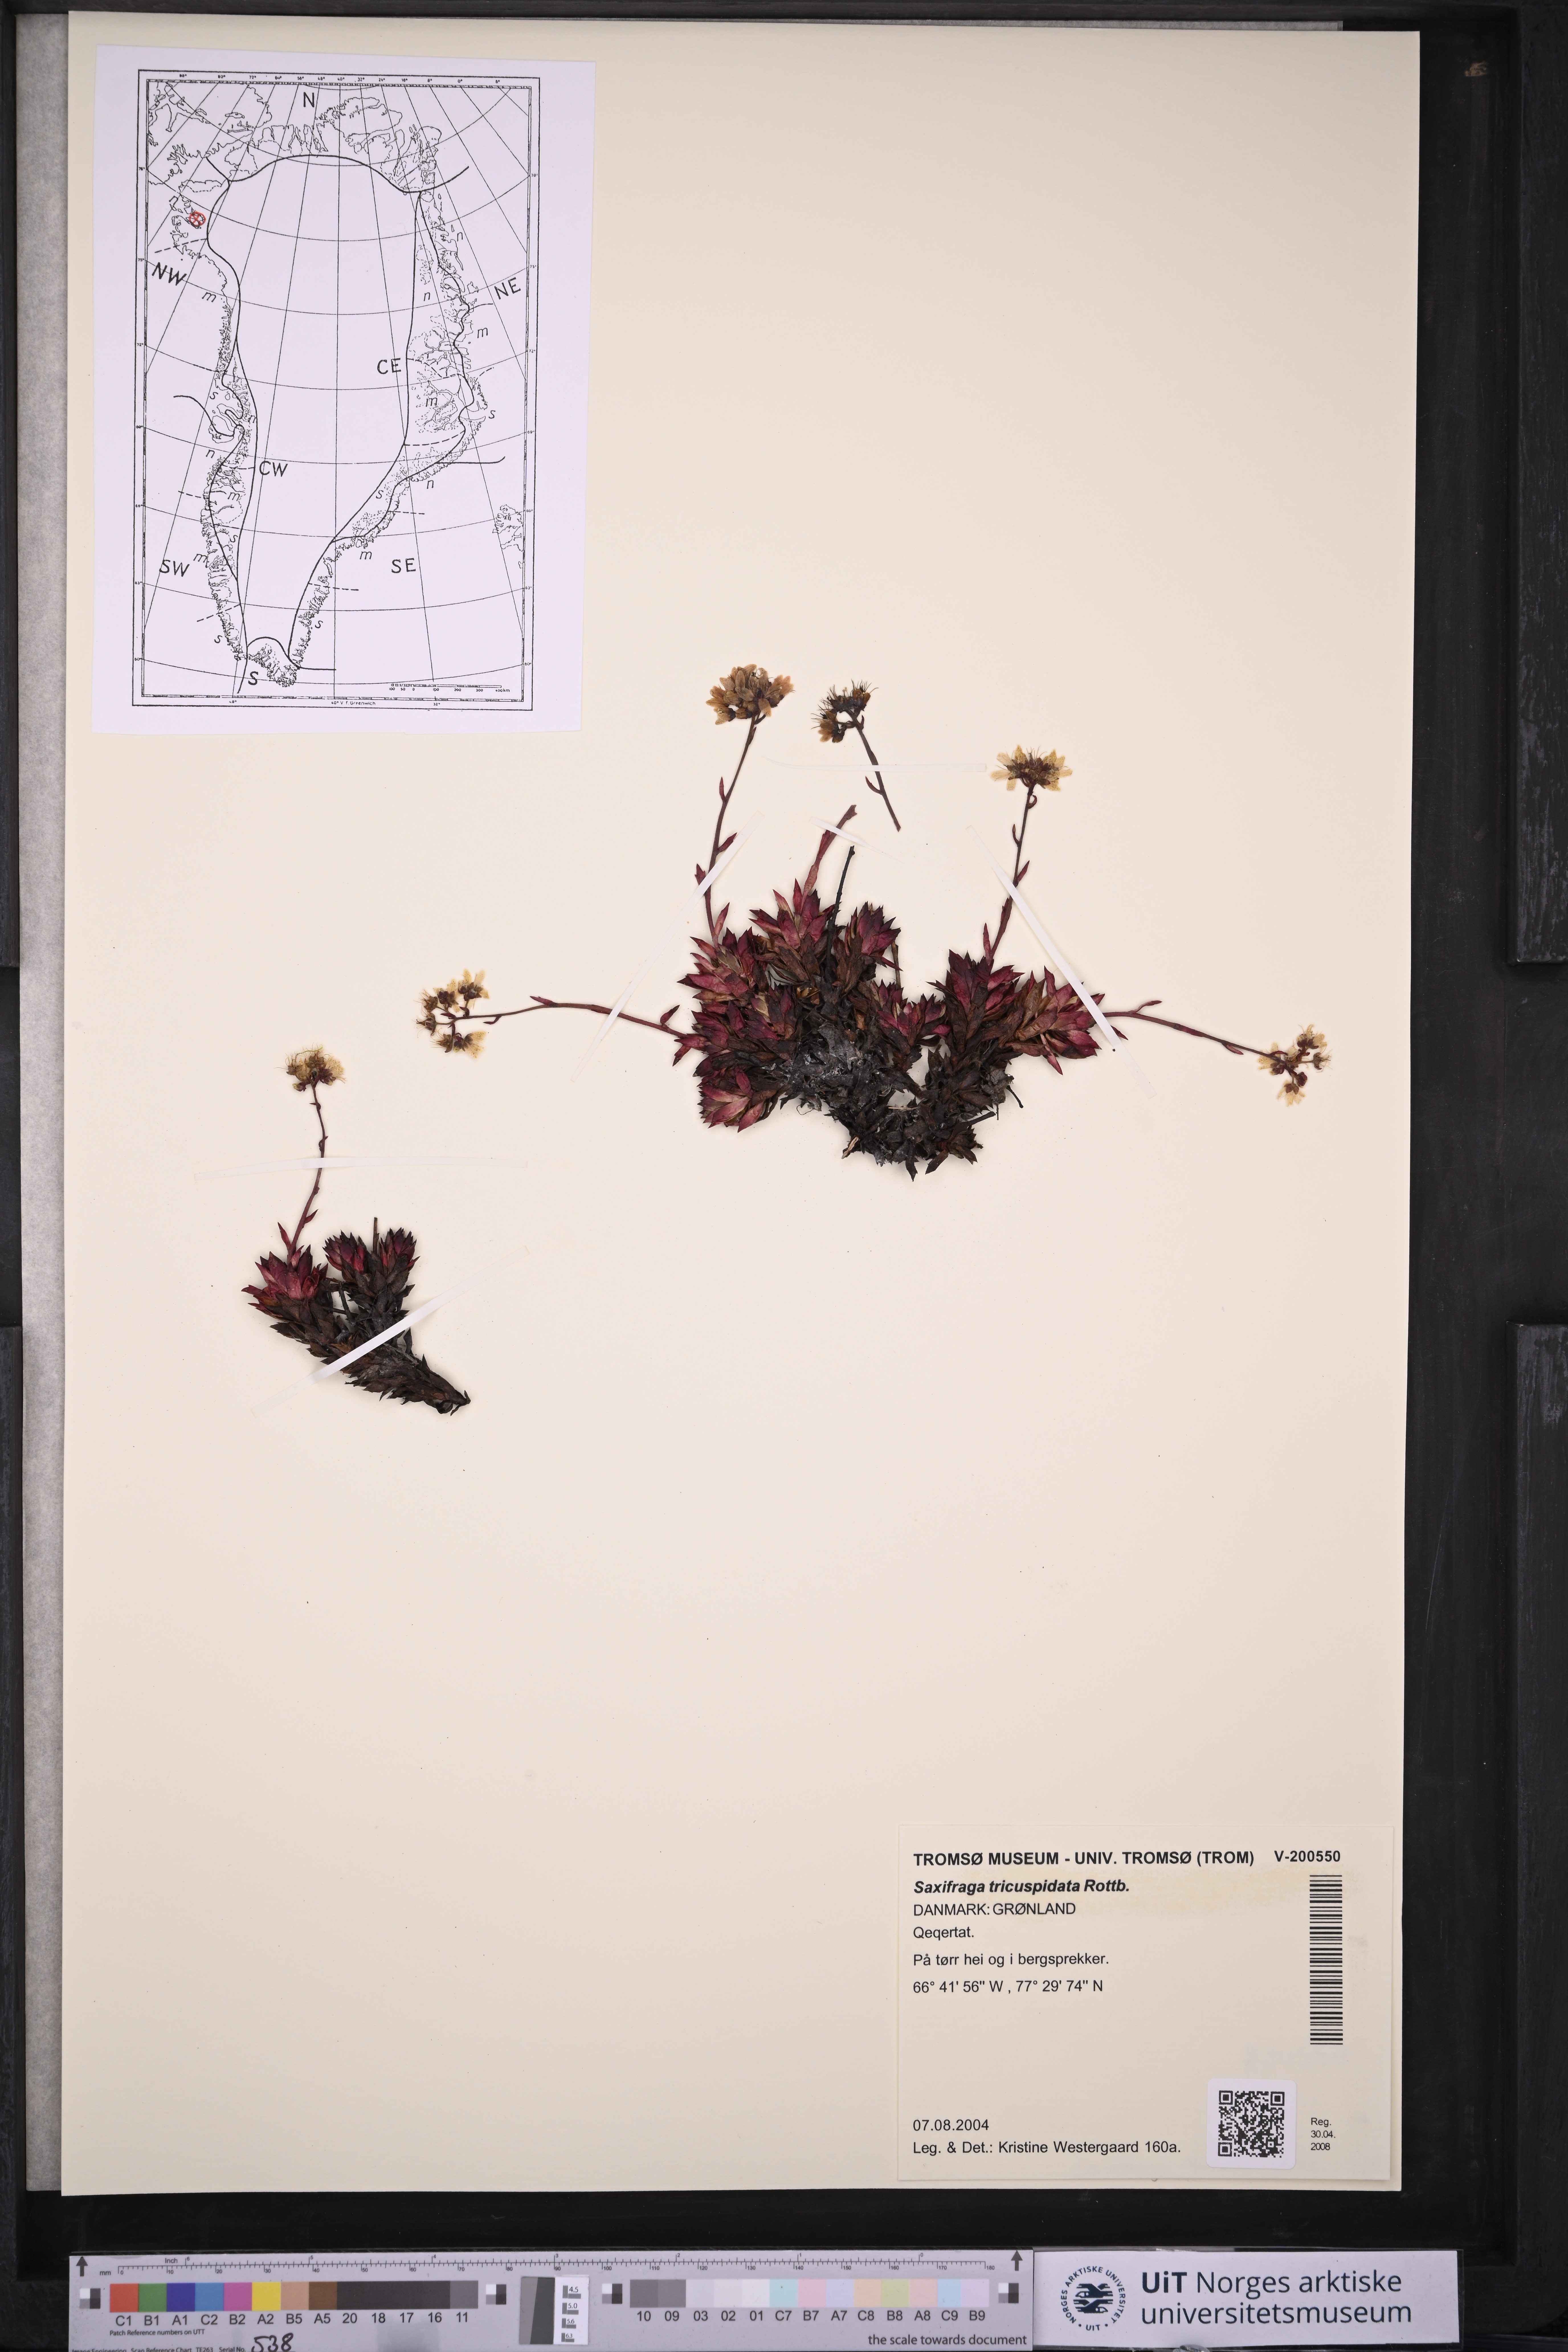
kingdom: Plantae
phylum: Tracheophyta
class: Magnoliopsida
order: Saxifragales
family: Saxifragaceae
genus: Saxifraga
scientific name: Saxifraga tricuspidata
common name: Prickly saxifrage
